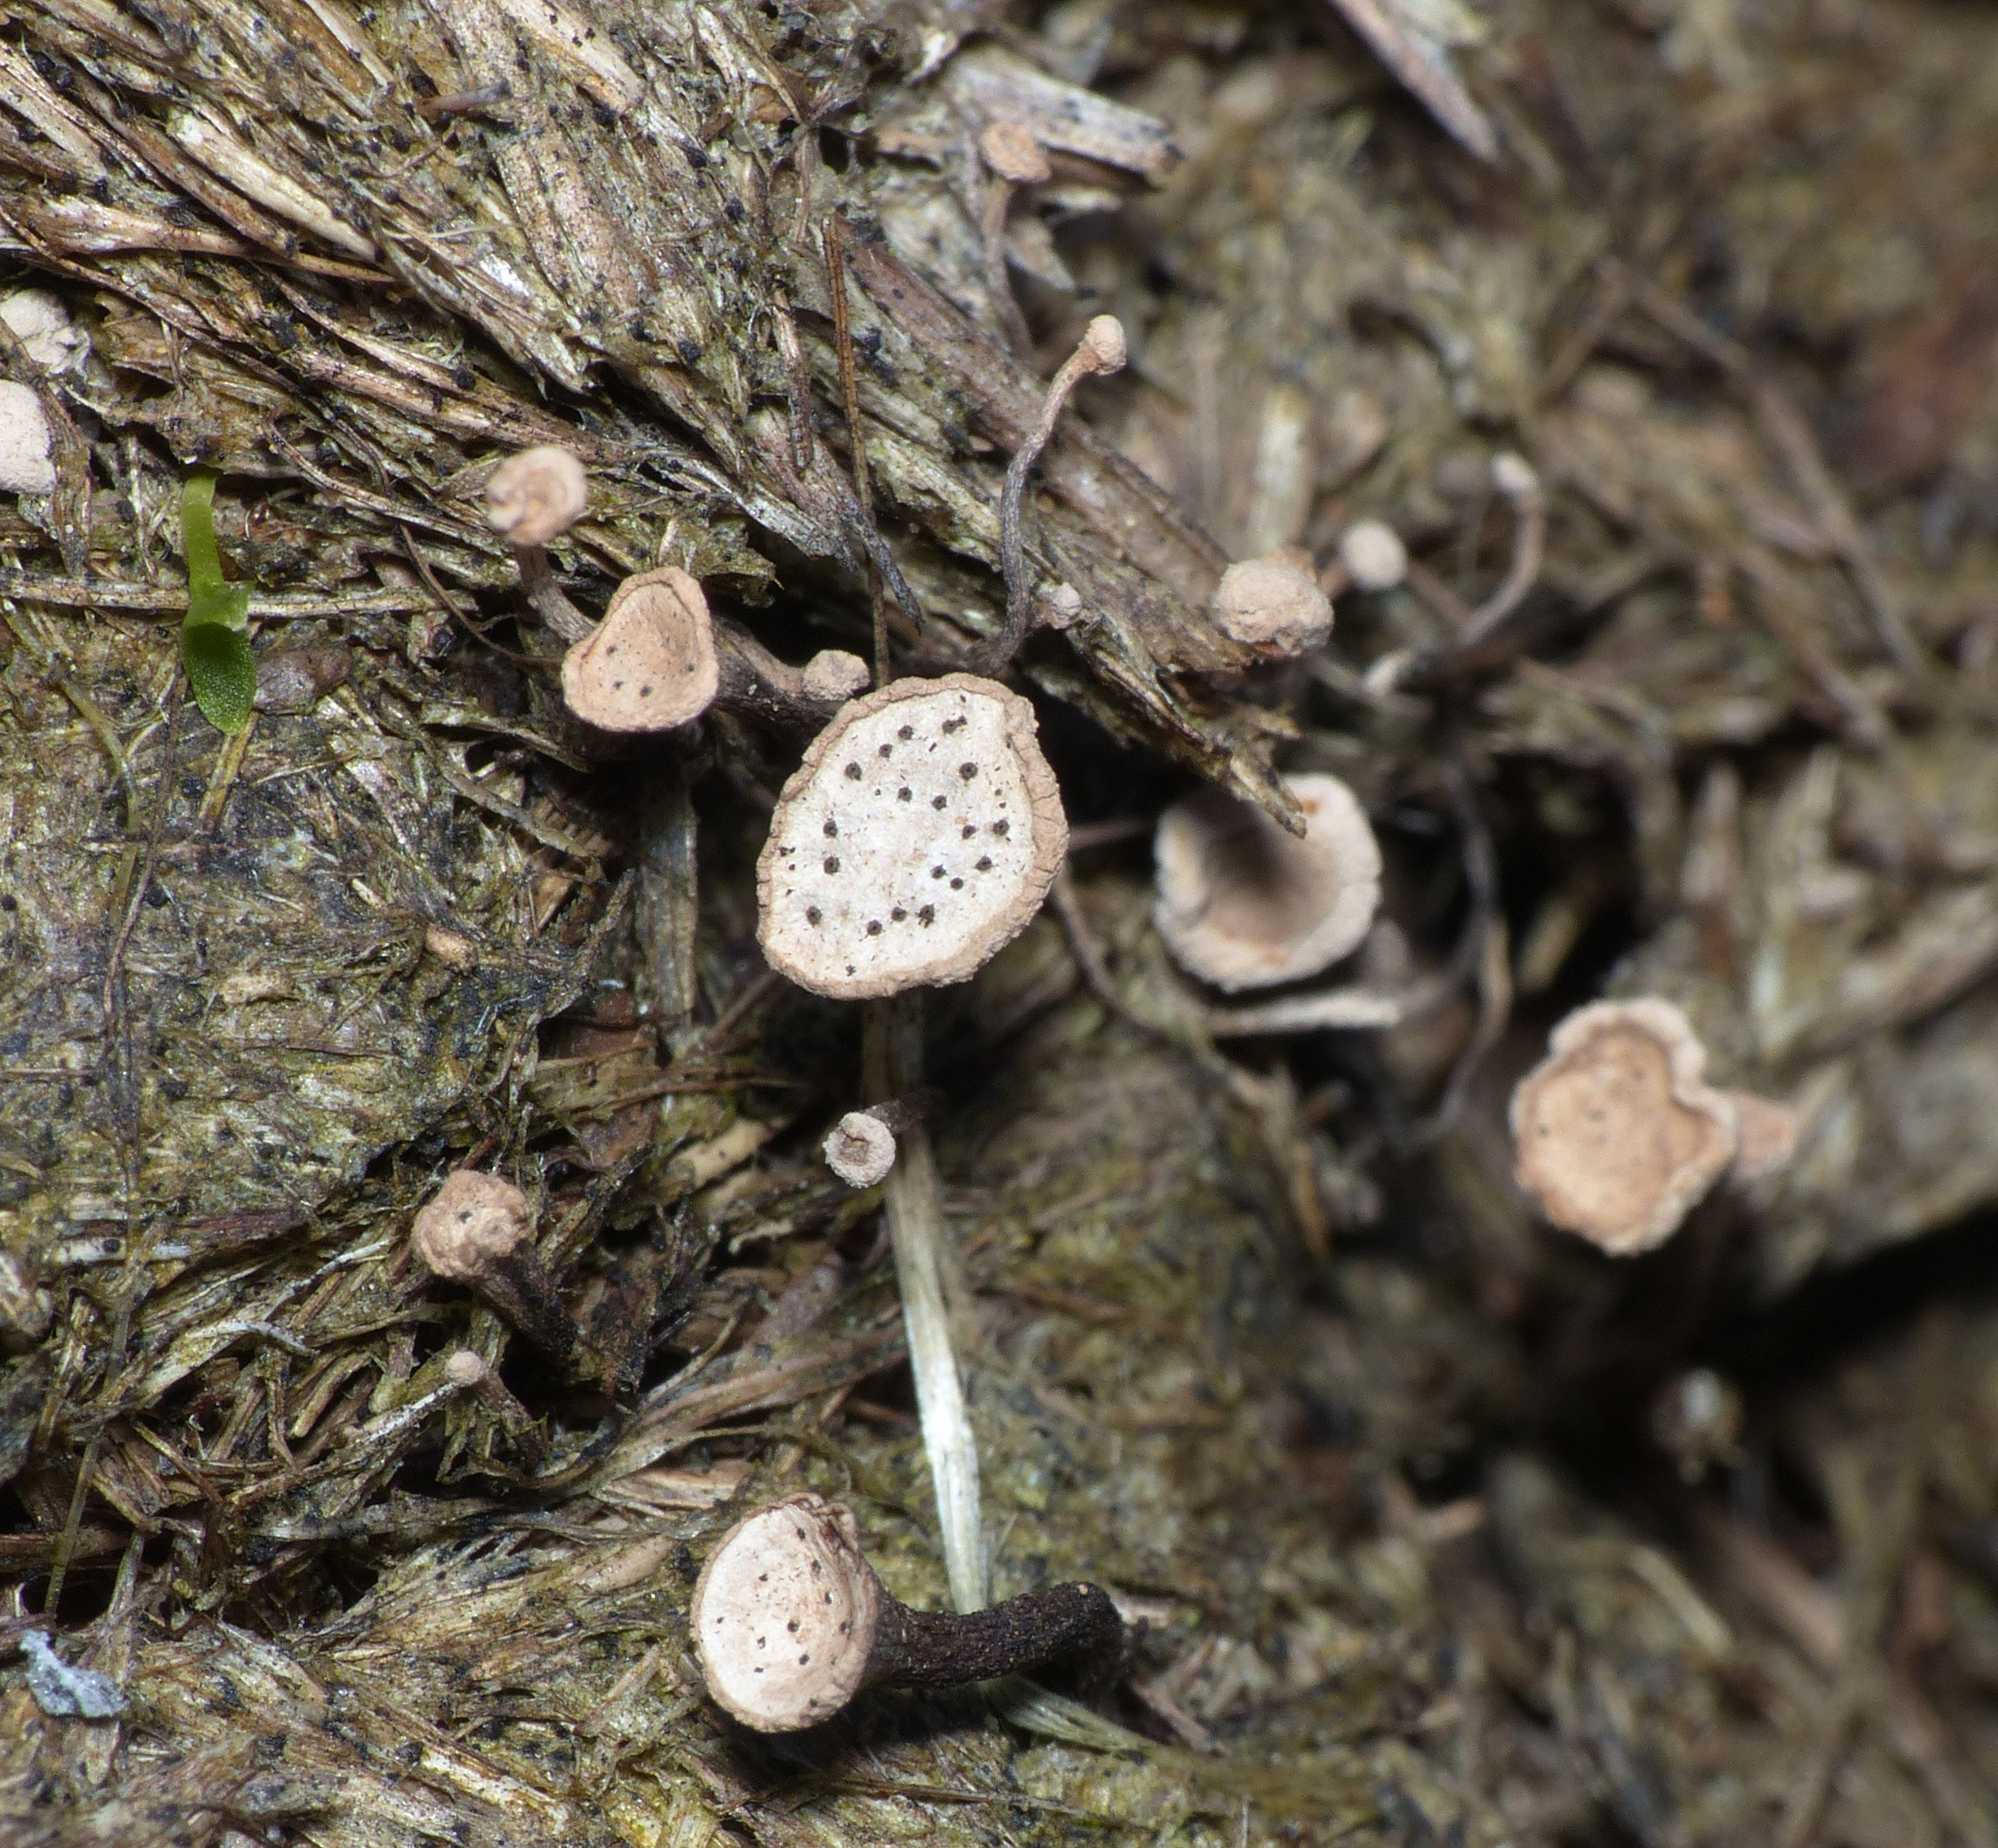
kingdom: Fungi
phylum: Ascomycota
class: Sordariomycetes
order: Xylariales
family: Xylariaceae
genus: Poronia
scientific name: Poronia punctata
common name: Stor priksvamp
